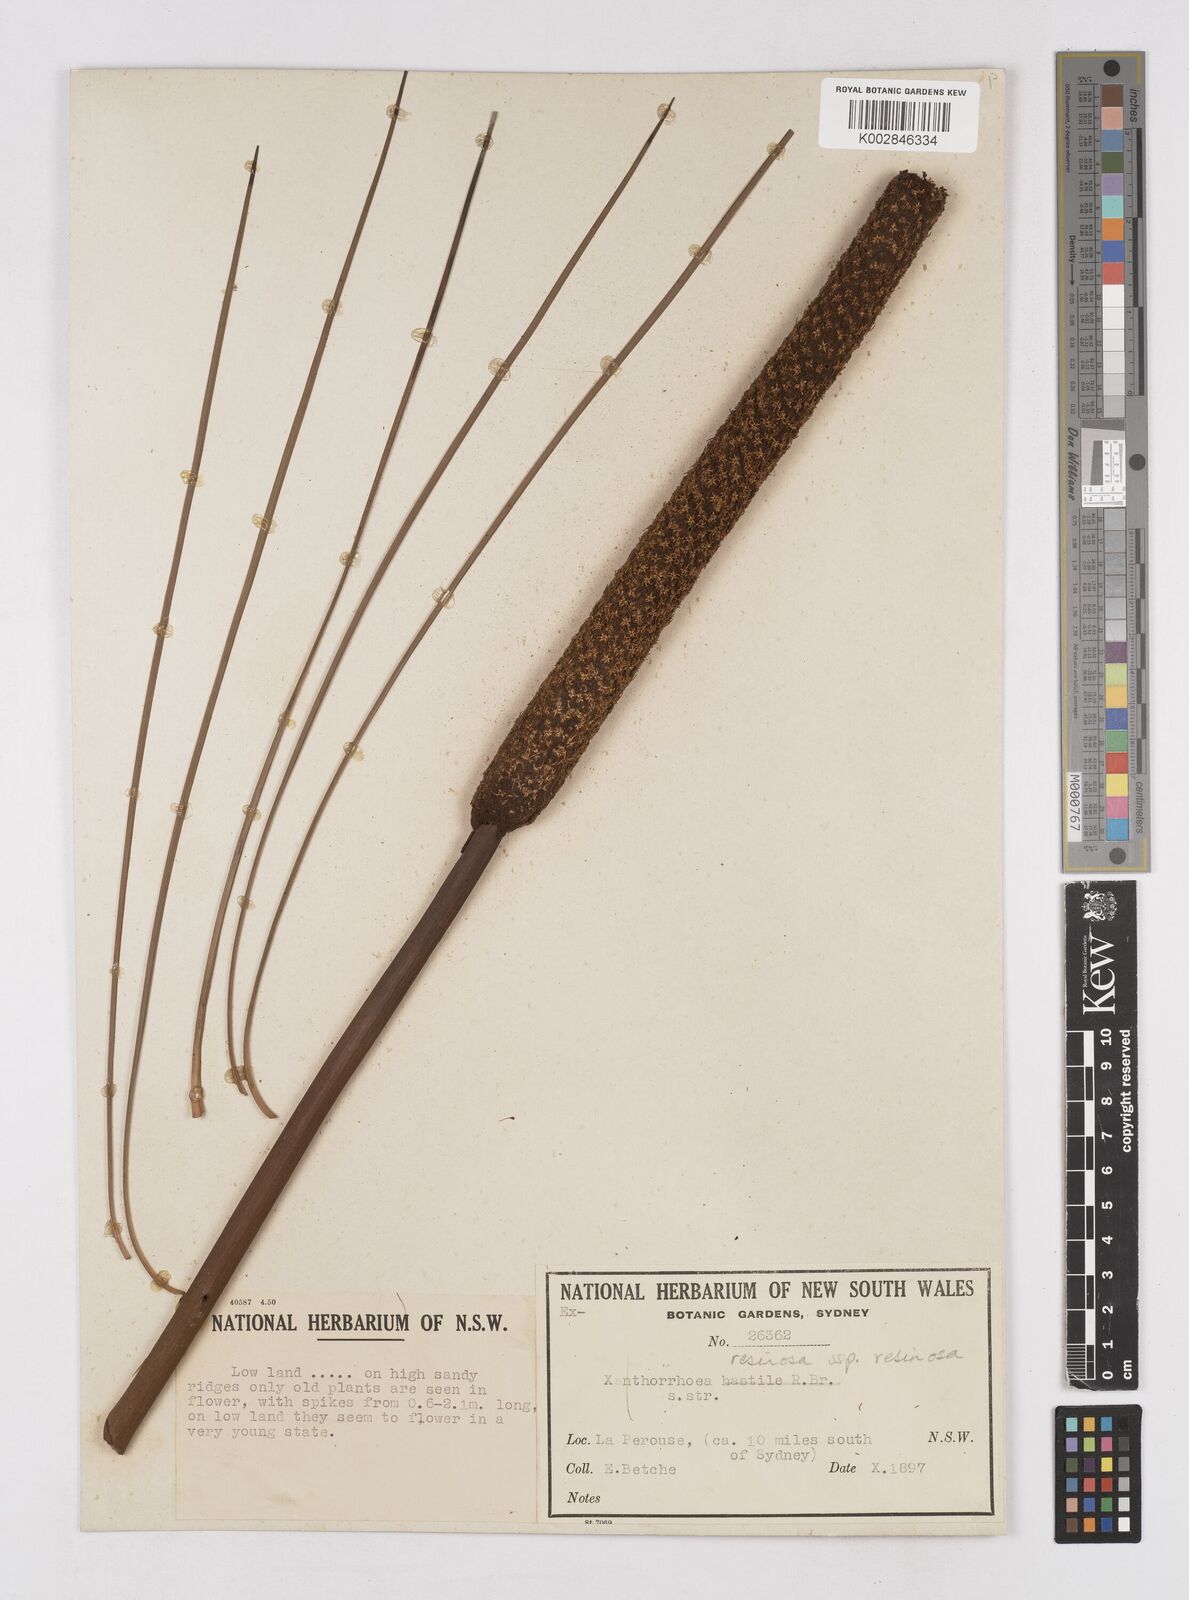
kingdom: Plantae
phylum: Tracheophyta
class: Liliopsida
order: Asparagales
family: Asphodelaceae
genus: Xanthorrhoea
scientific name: Xanthorrhoea resinosa
